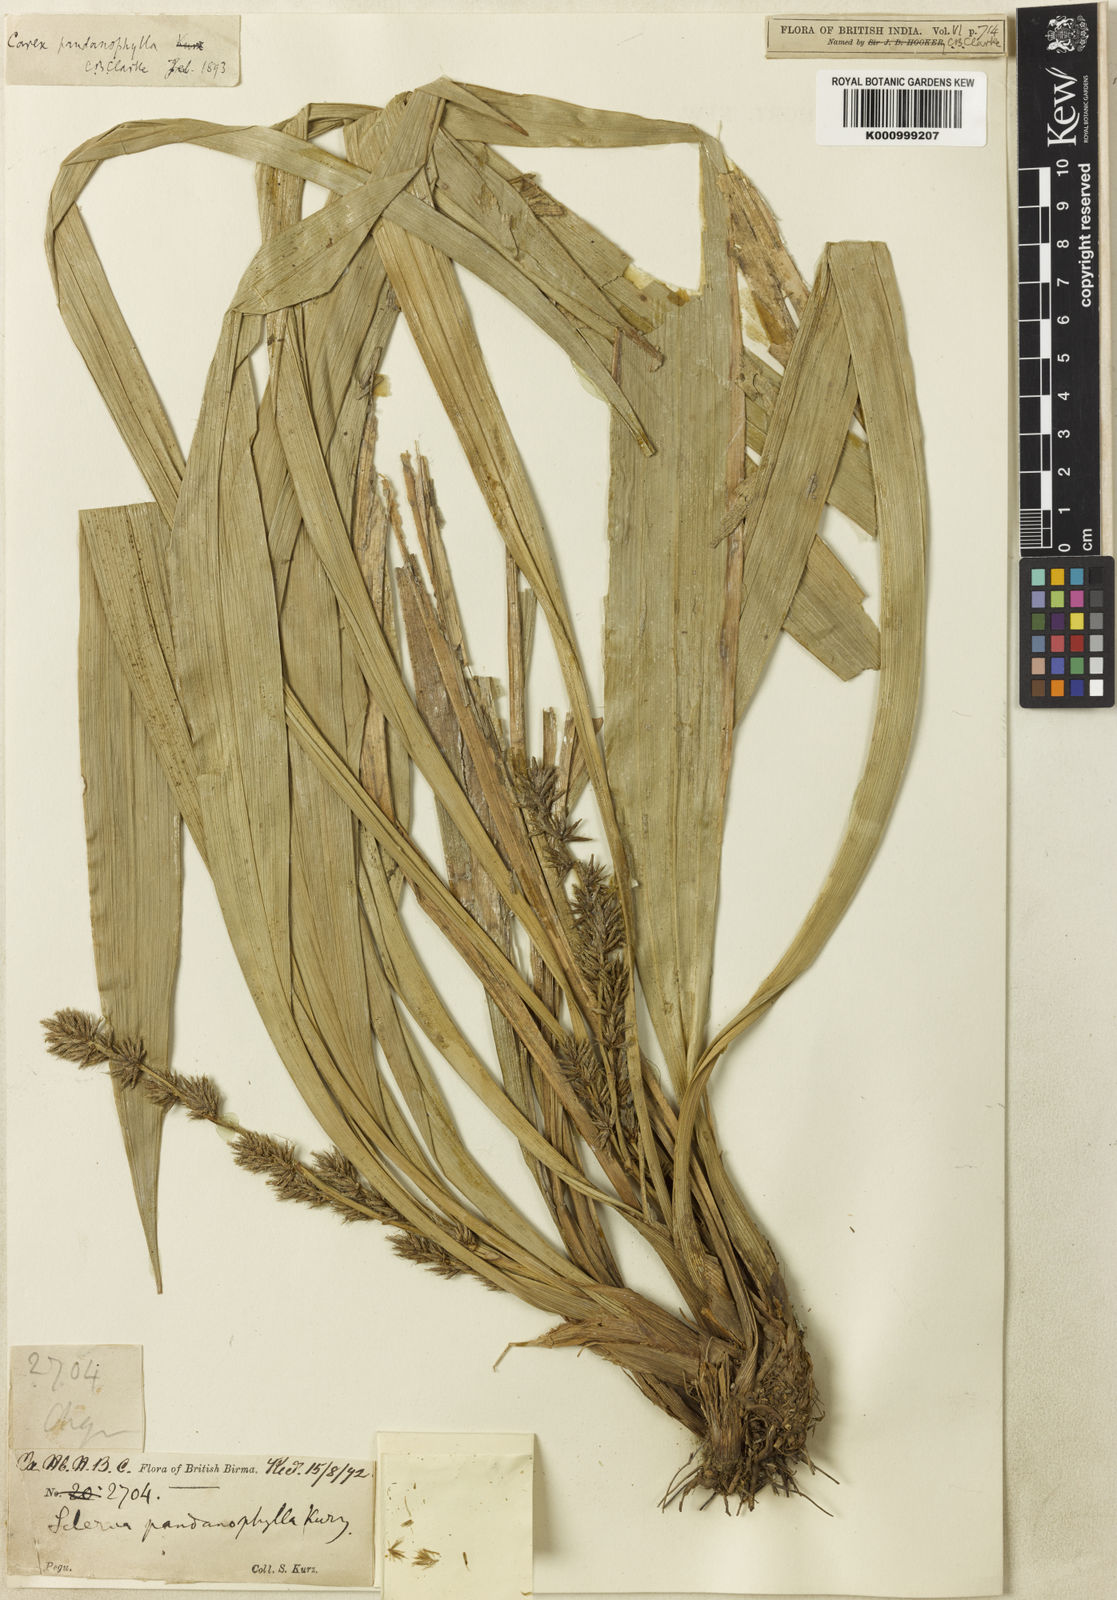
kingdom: Plantae
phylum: Tracheophyta
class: Liliopsida
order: Poales
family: Cyperaceae
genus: Carex
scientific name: Carex pandanophylla
